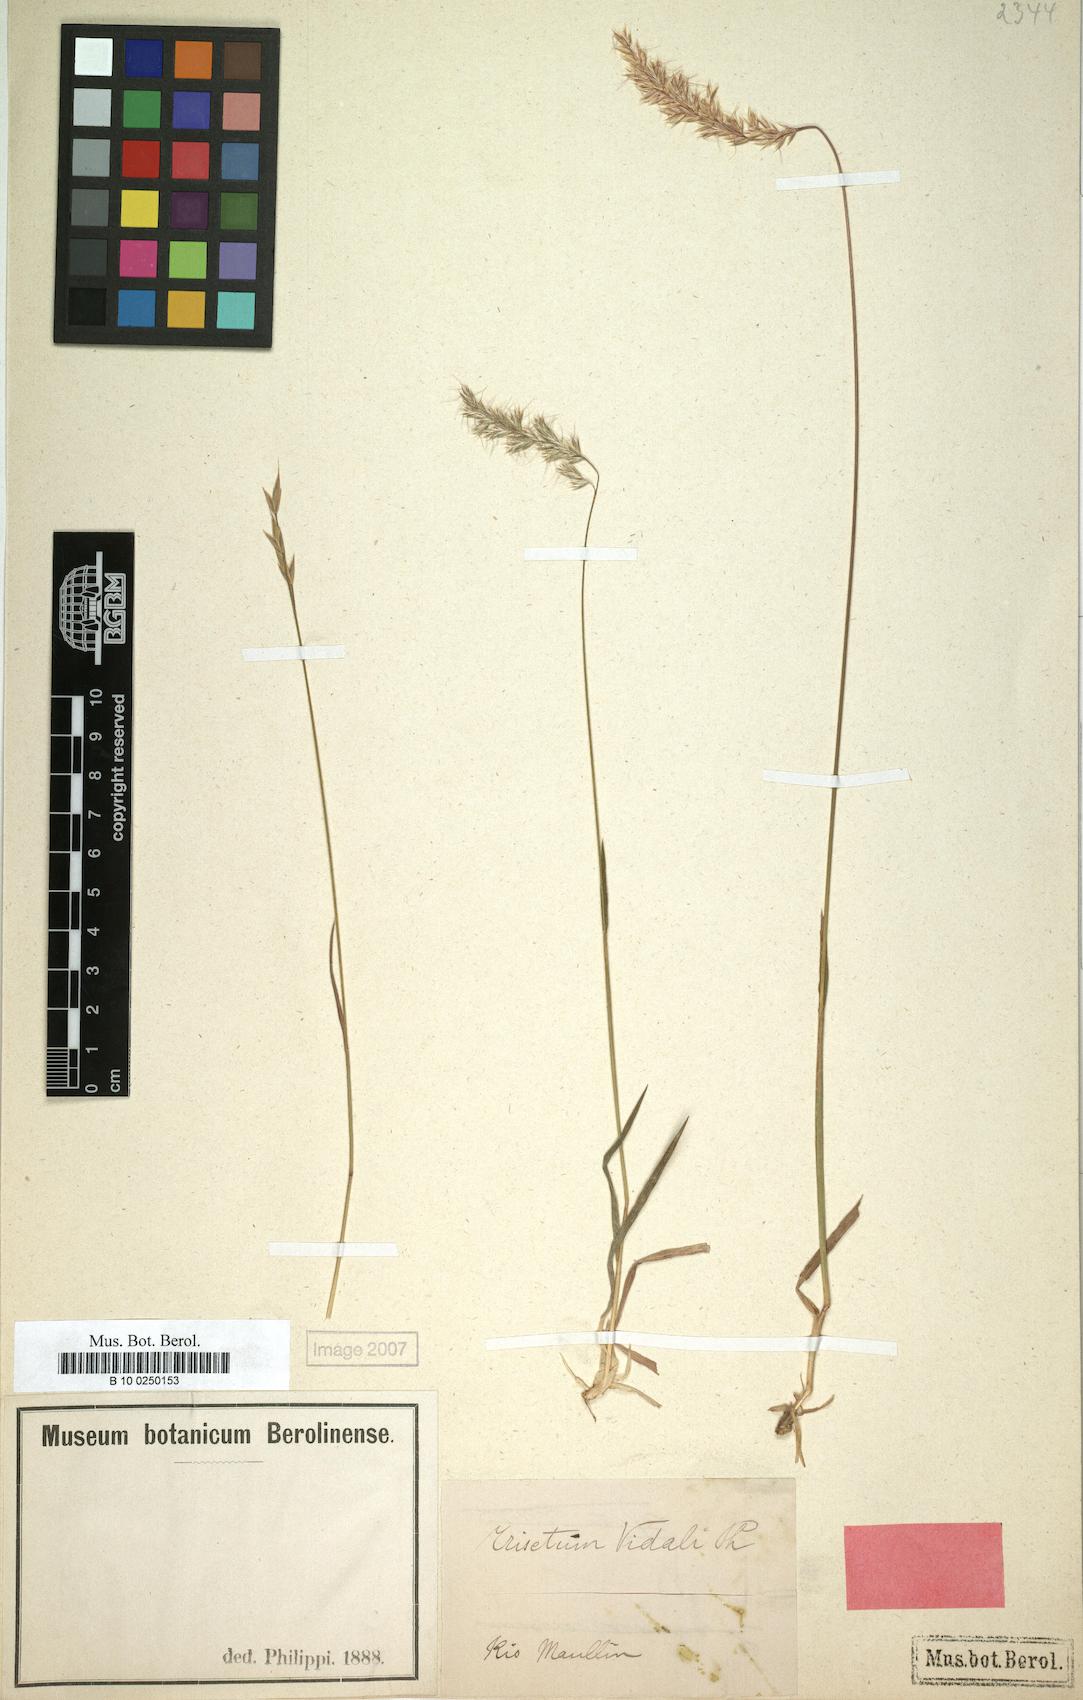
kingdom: Plantae
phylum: Tracheophyta
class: Liliopsida
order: Poales
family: Poaceae
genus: Trisetum
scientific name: Trisetum caudulatum
